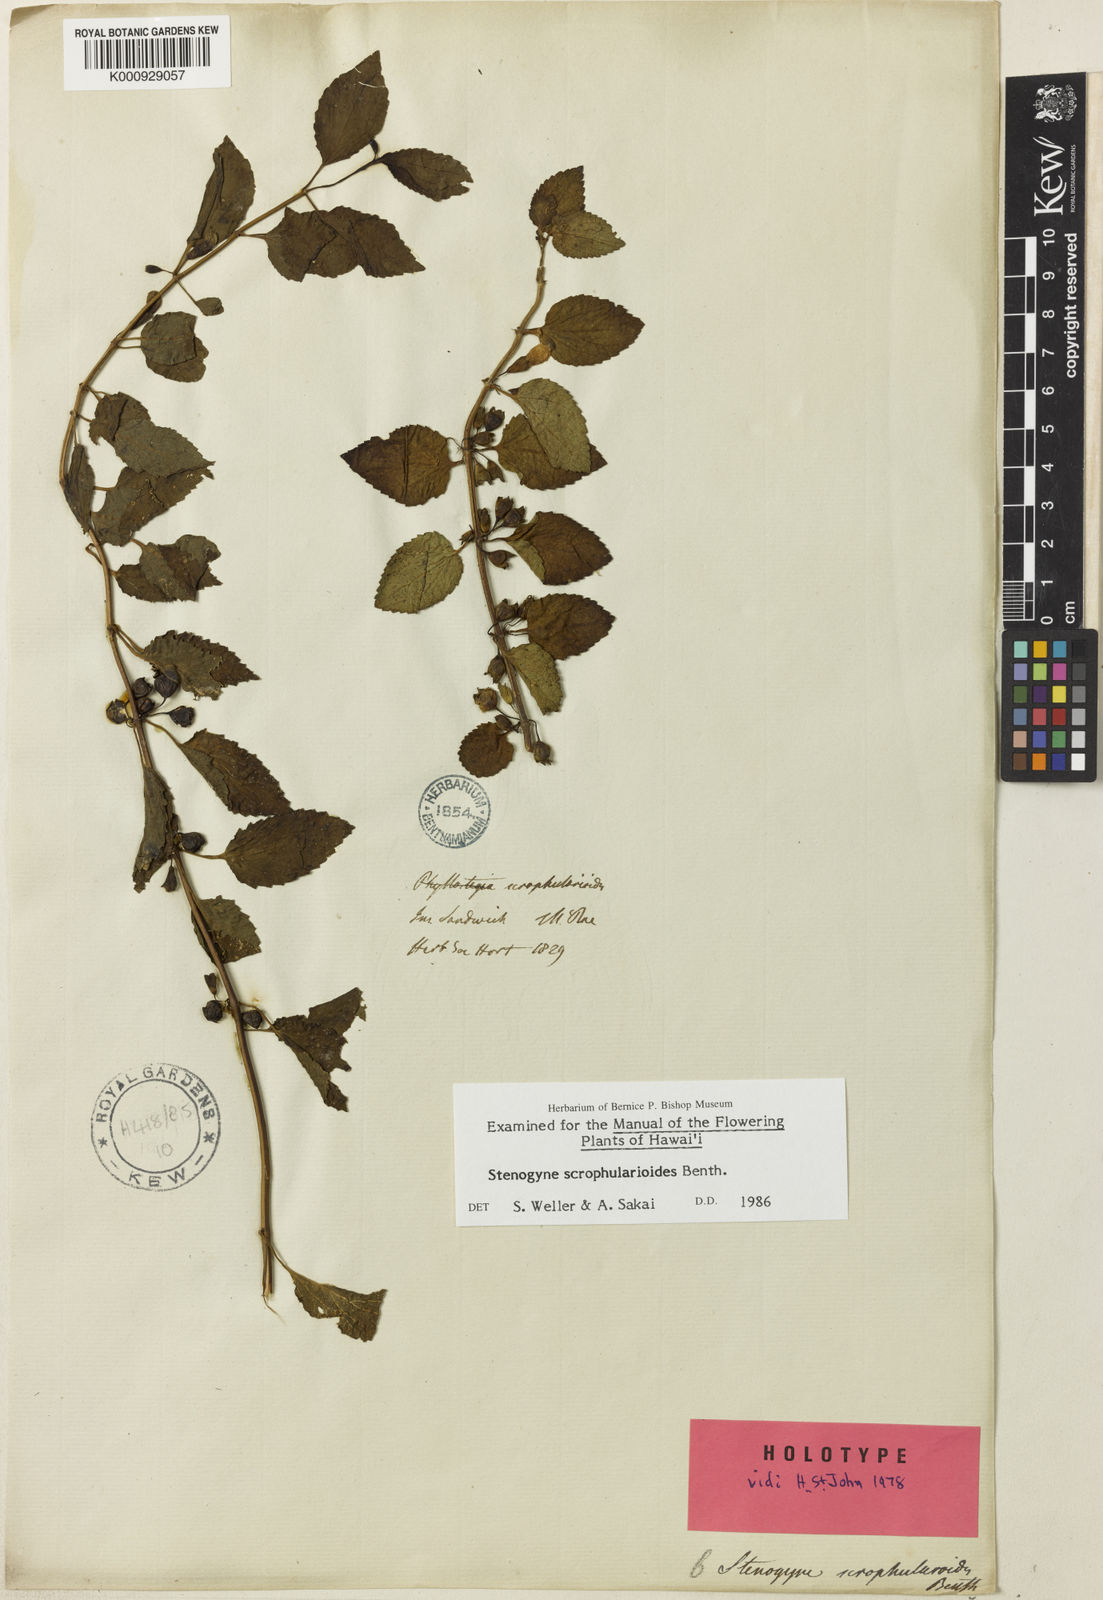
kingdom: Plantae
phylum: Tracheophyta
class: Magnoliopsida
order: Lamiales
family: Lamiaceae
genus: Stenogyne
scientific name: Stenogyne scrophularioides
